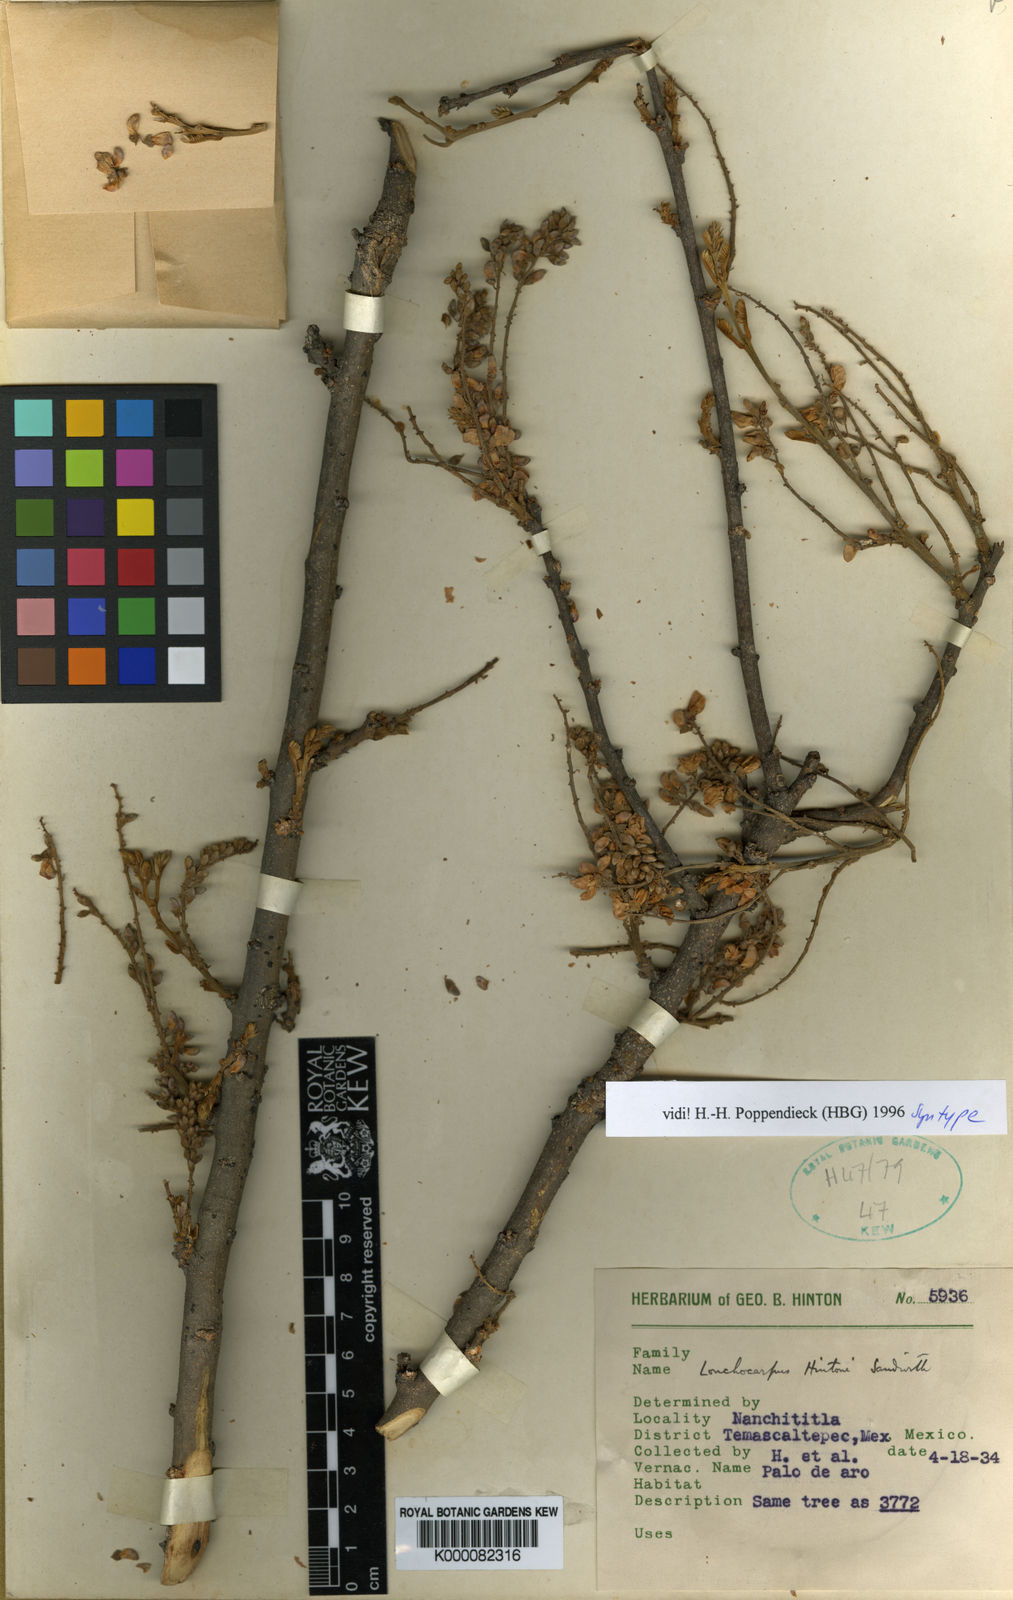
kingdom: Plantae
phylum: Tracheophyta
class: Magnoliopsida
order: Fabales
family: Fabaceae
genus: Lonchocarpus
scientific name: Lonchocarpus hintonii
